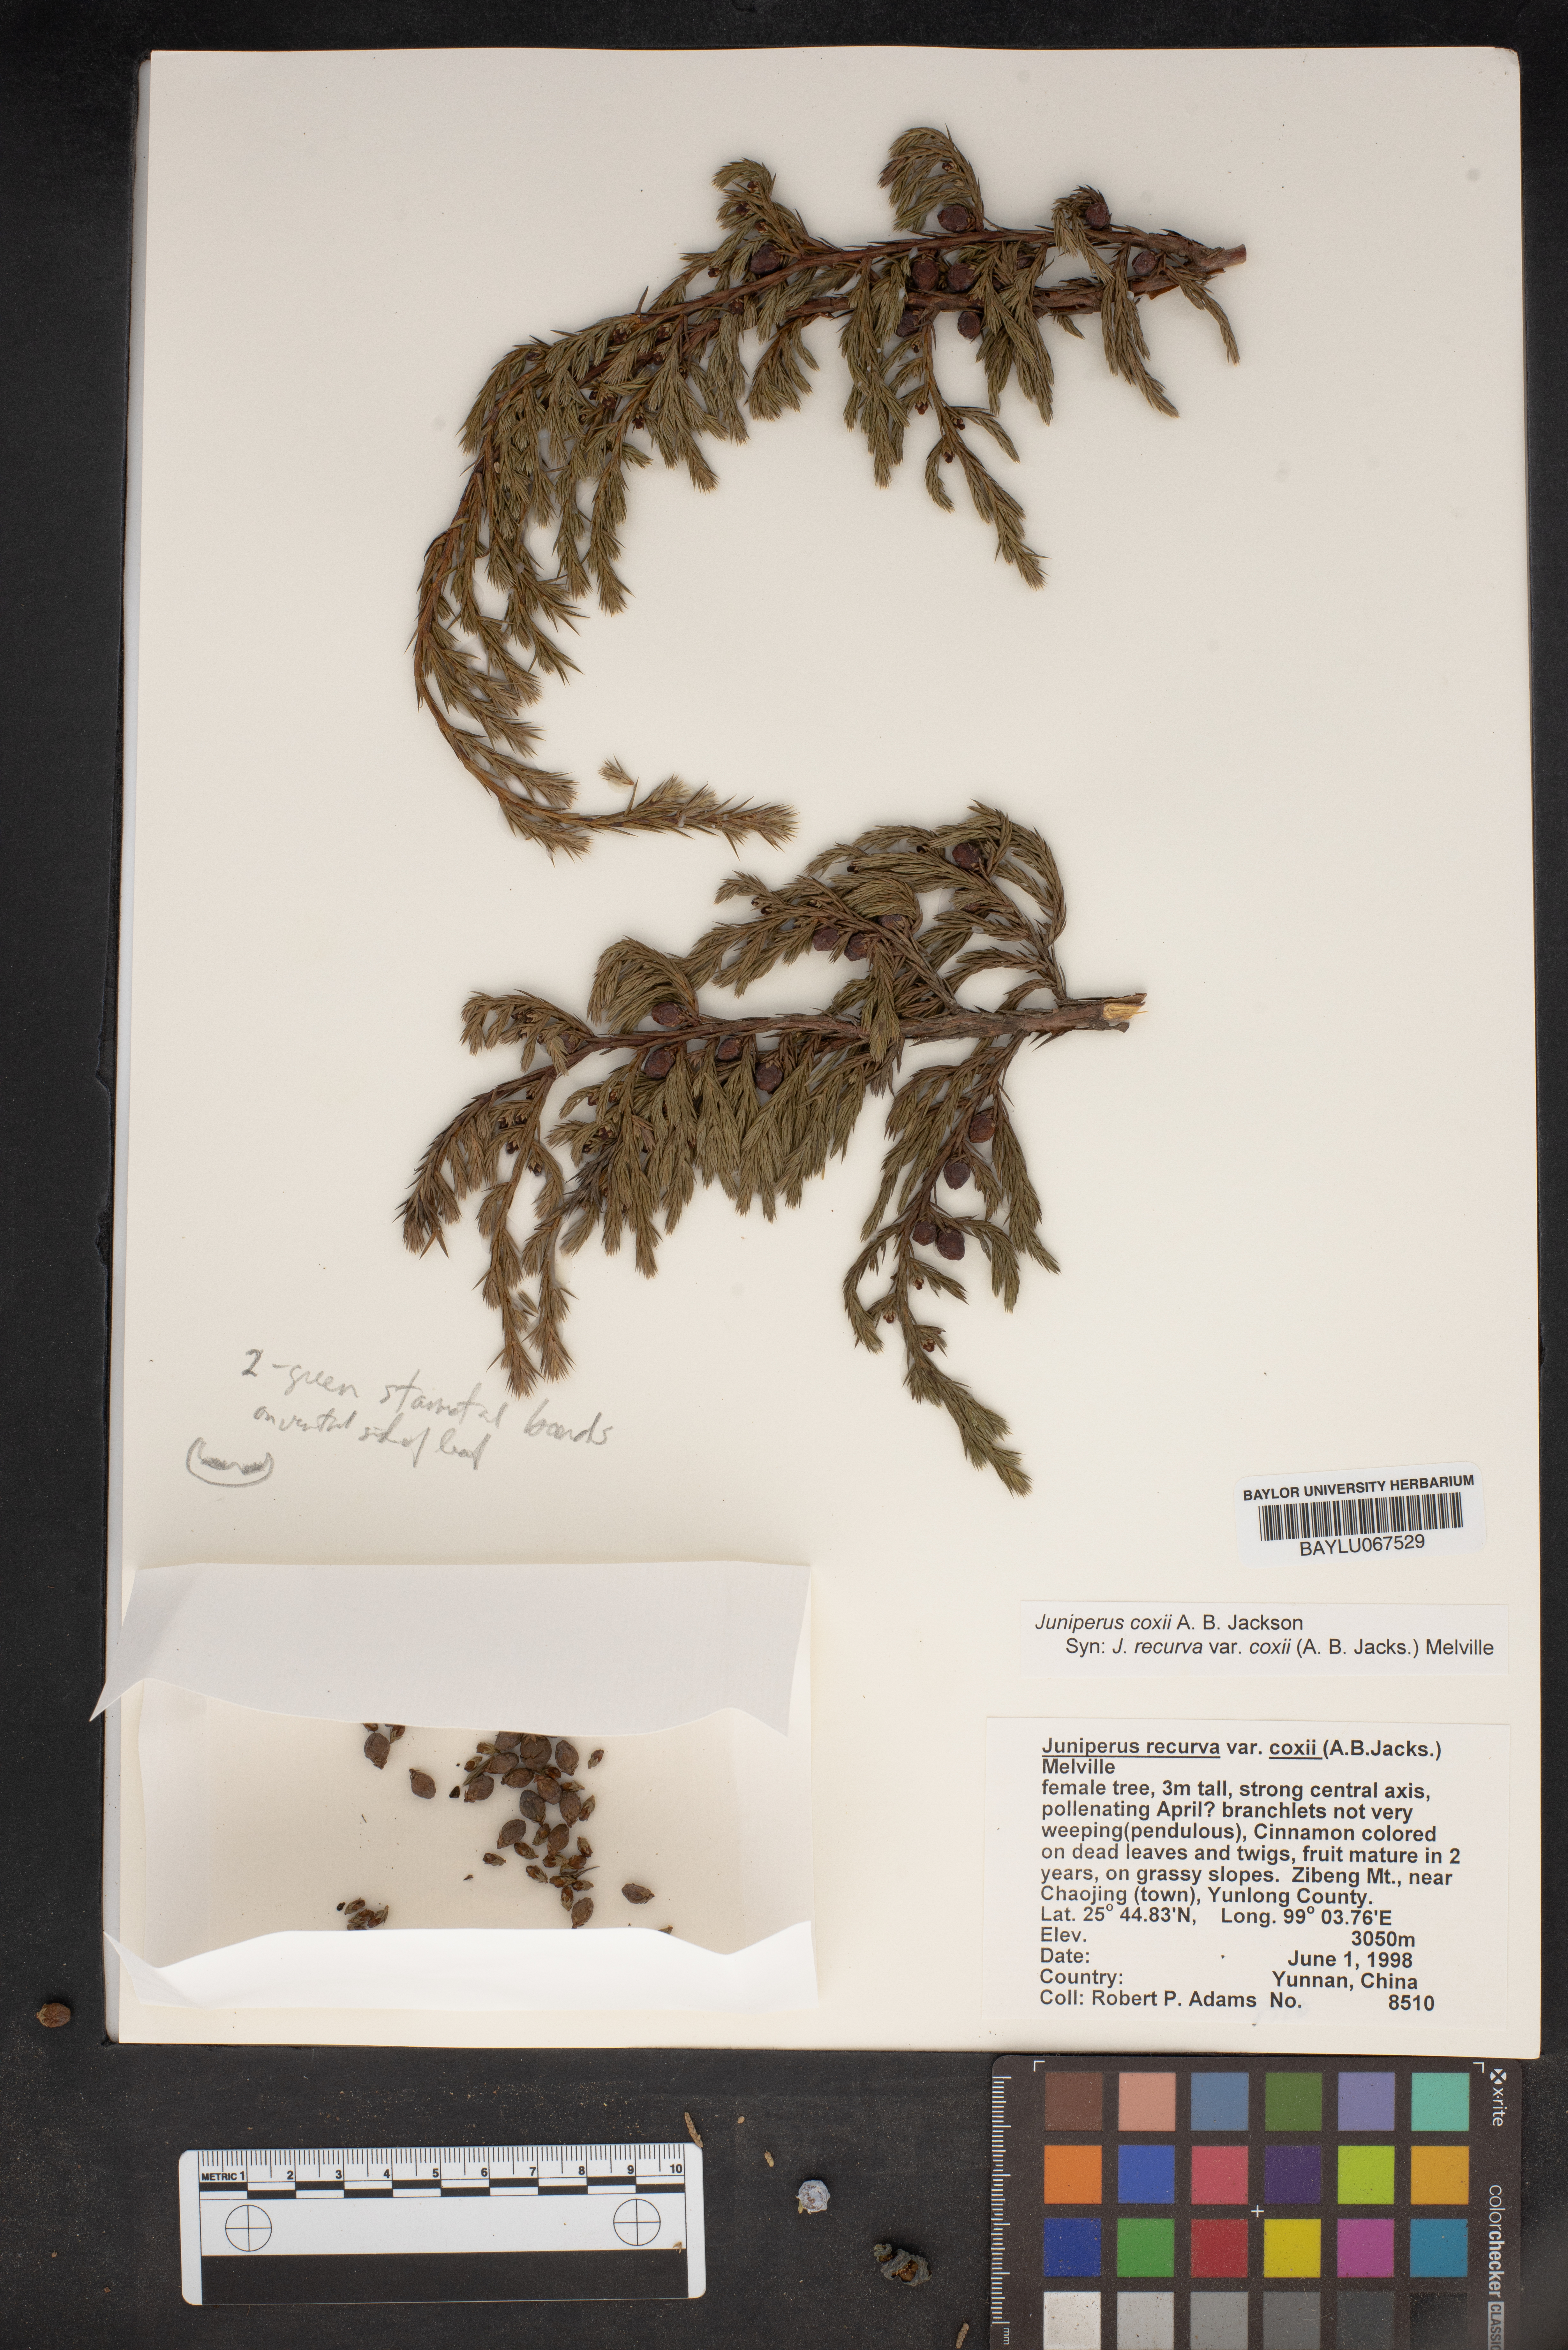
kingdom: Plantae
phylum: Tracheophyta
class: Pinopsida
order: Pinales
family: Cupressaceae
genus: Juniperus
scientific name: Juniperus recurva
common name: Drooping juniper
